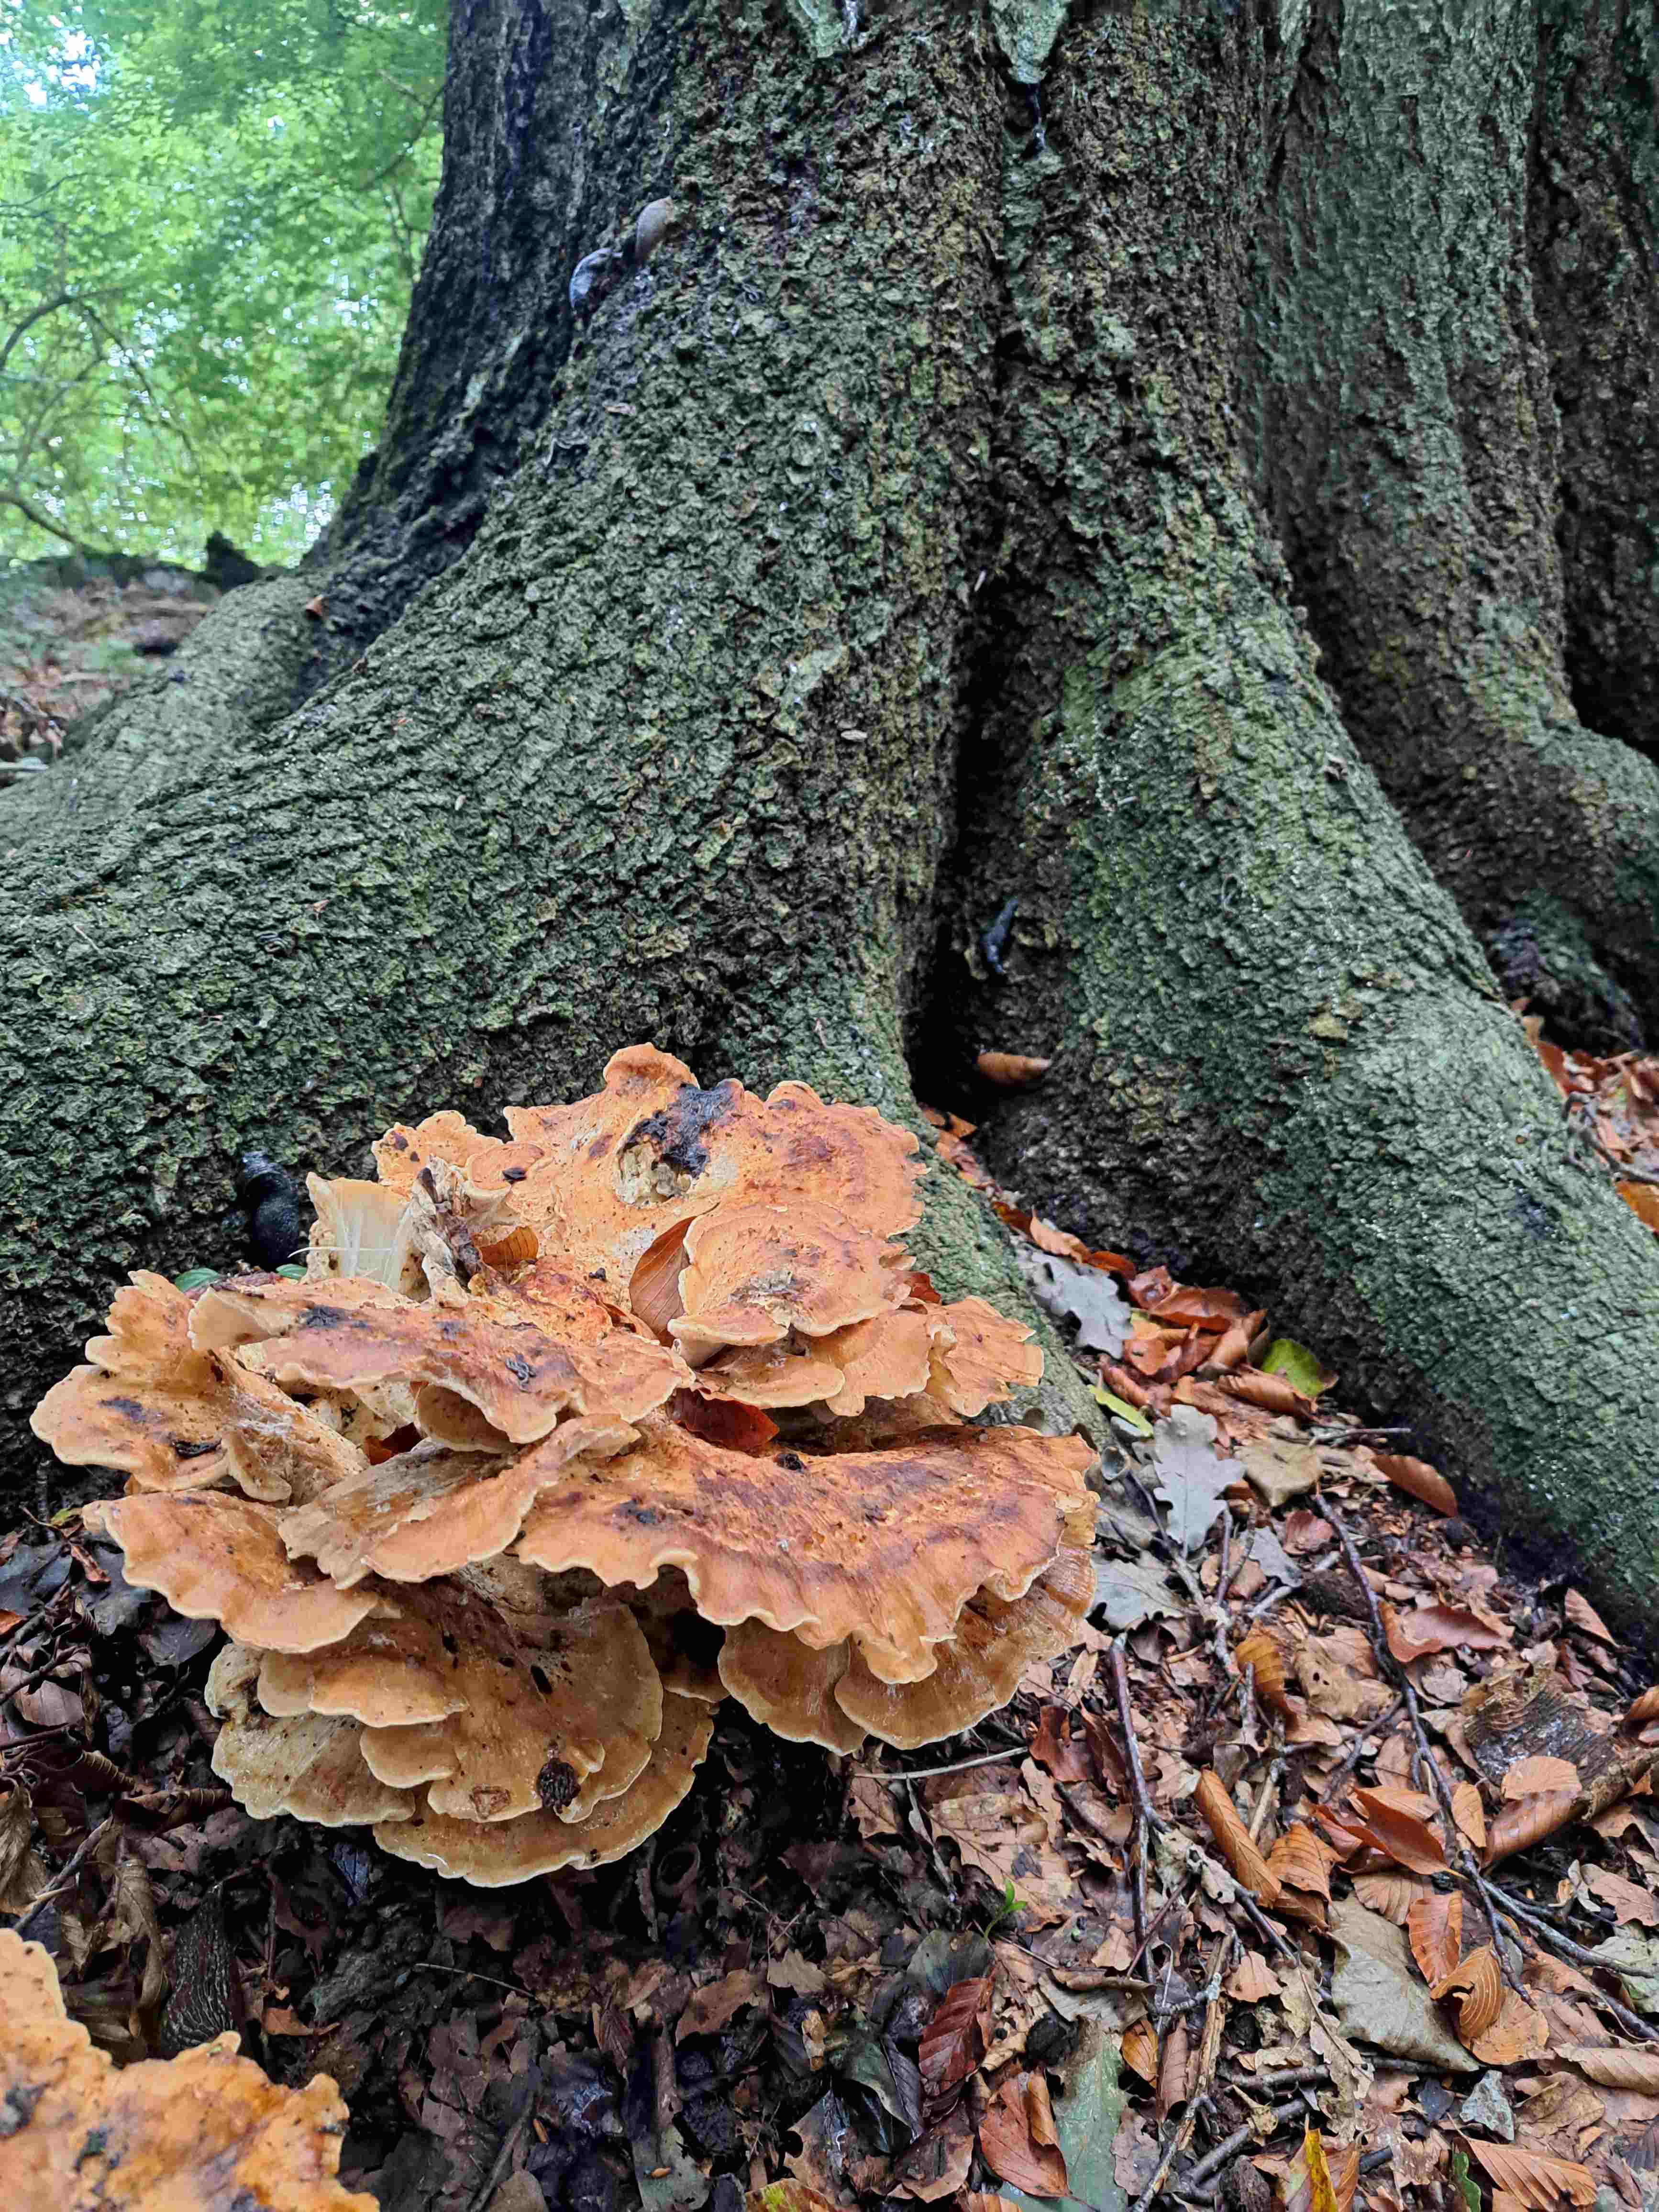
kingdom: Fungi
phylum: Basidiomycota
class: Agaricomycetes
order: Polyporales
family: Meripilaceae
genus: Meripilus
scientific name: Meripilus giganteus
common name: kæmpeporesvamp
